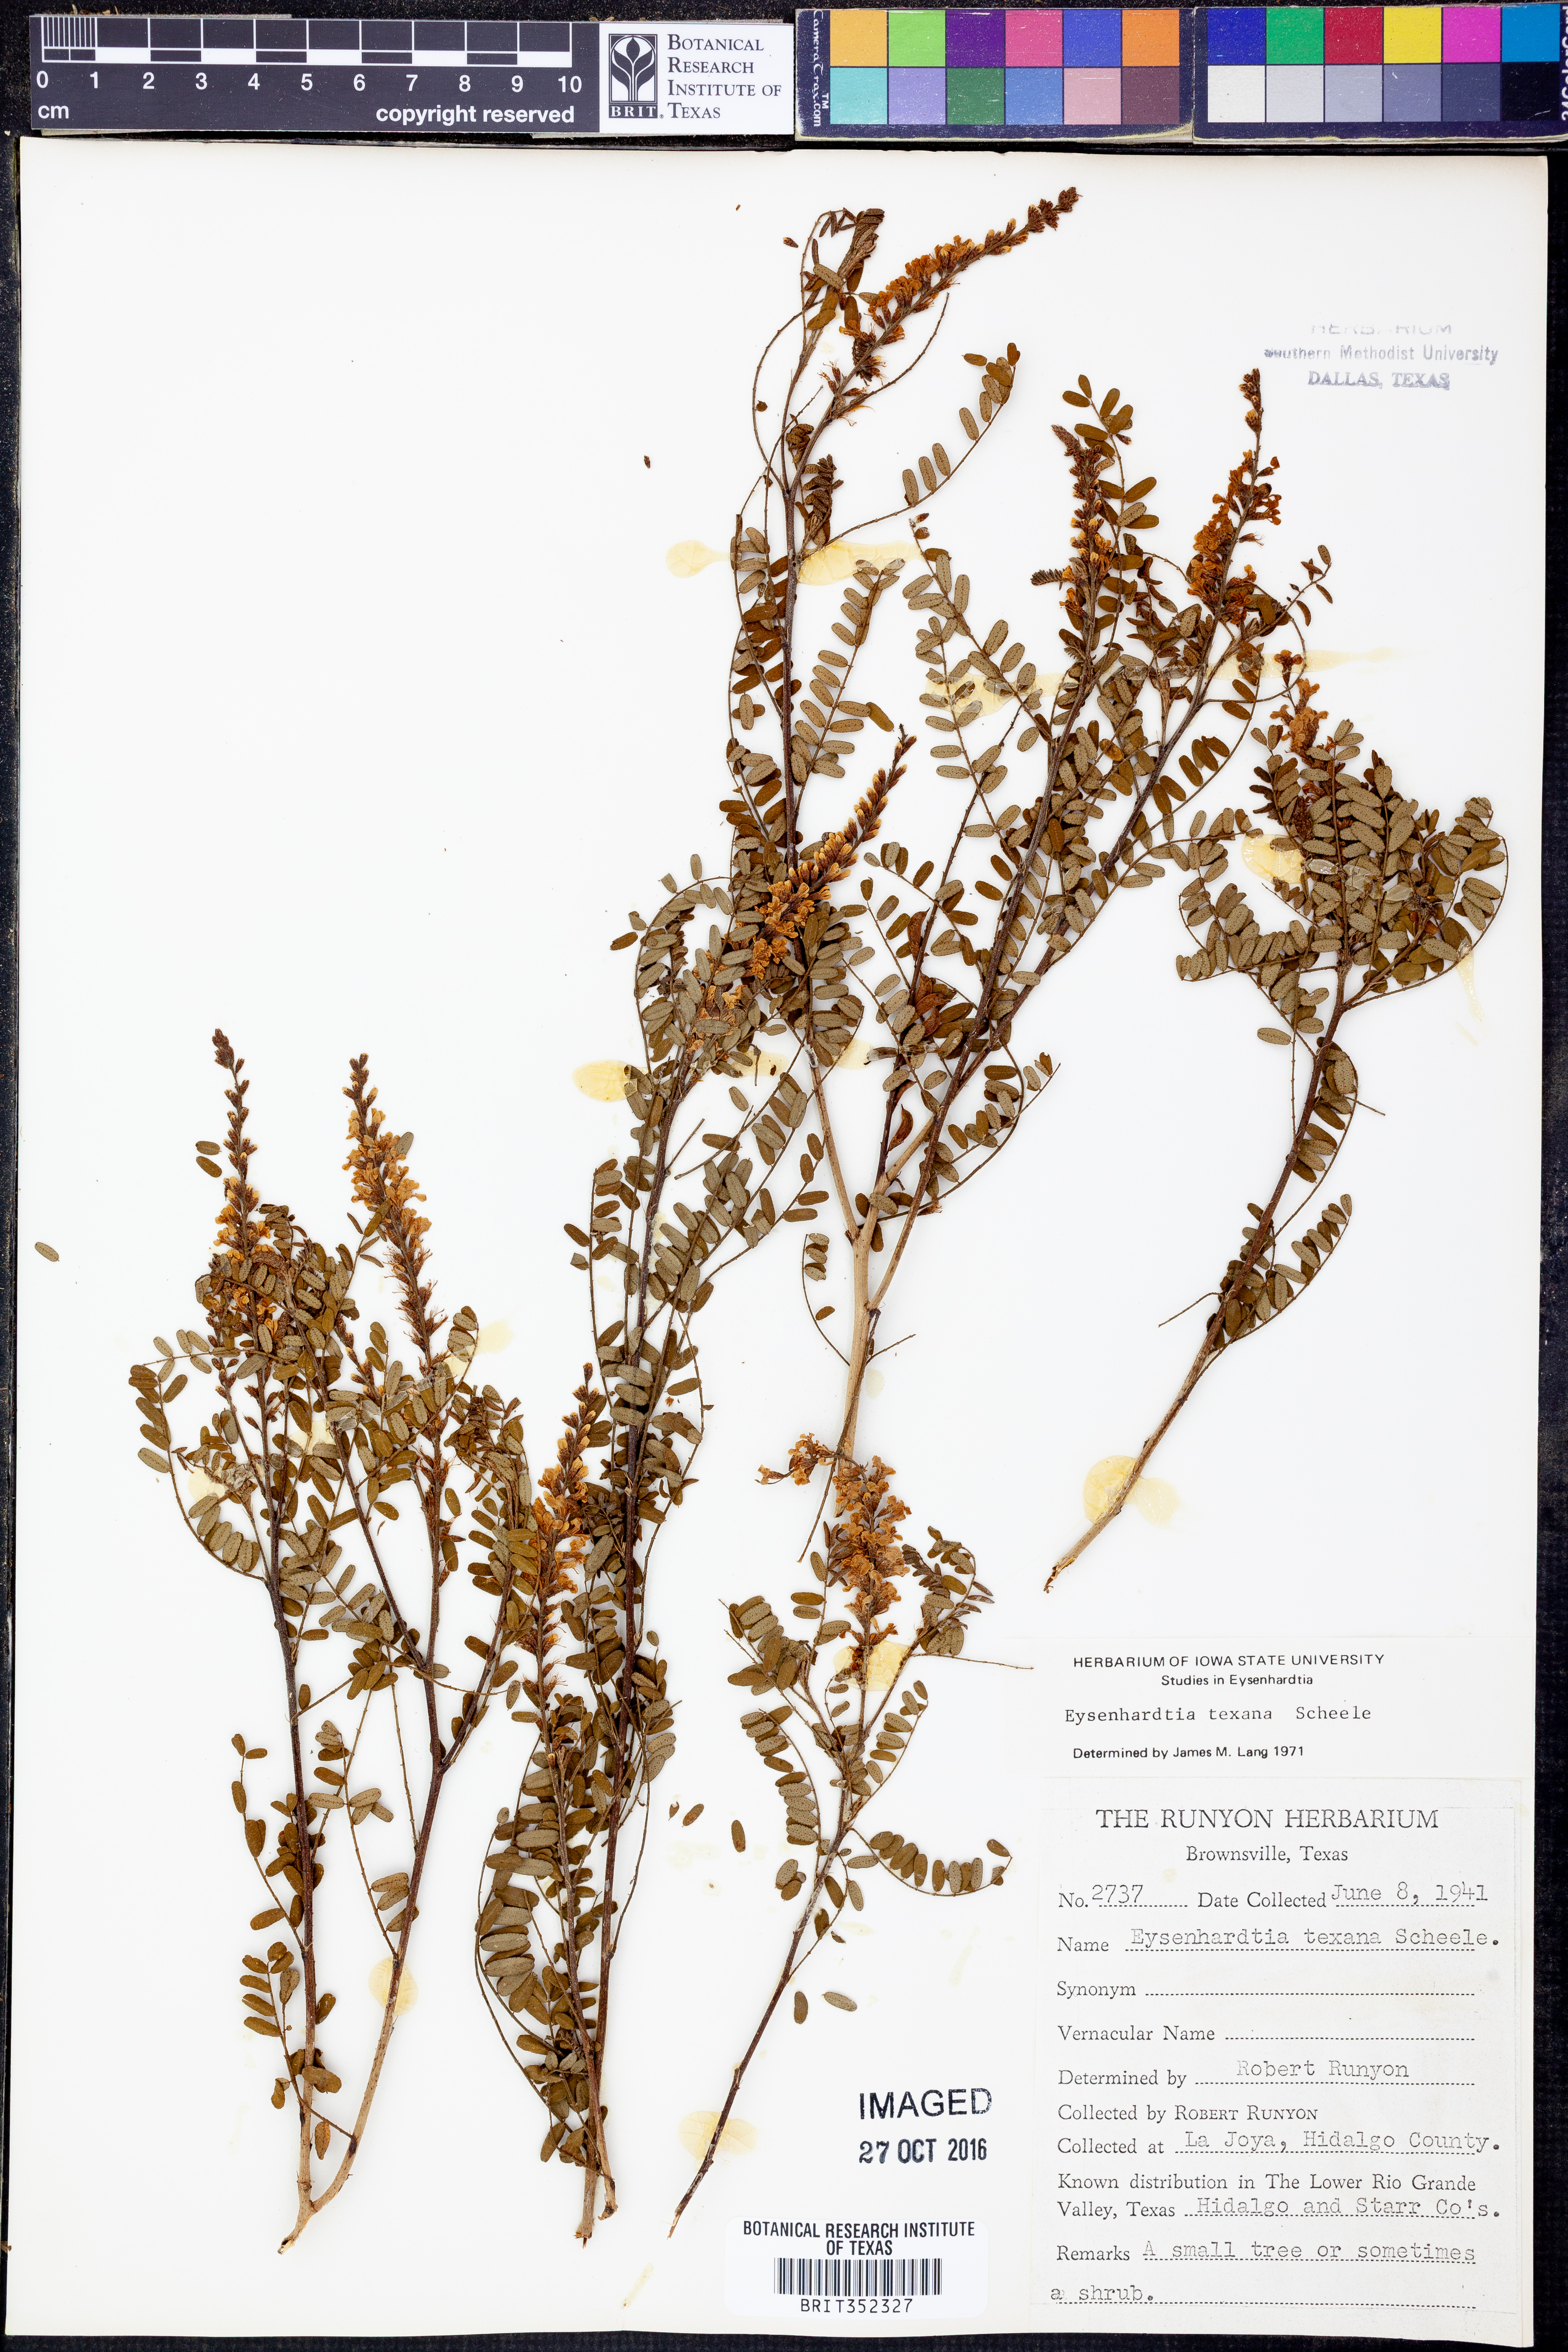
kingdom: Plantae
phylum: Tracheophyta
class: Magnoliopsida
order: Fabales
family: Fabaceae
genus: Eysenhardtia
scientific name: Eysenhardtia texana
